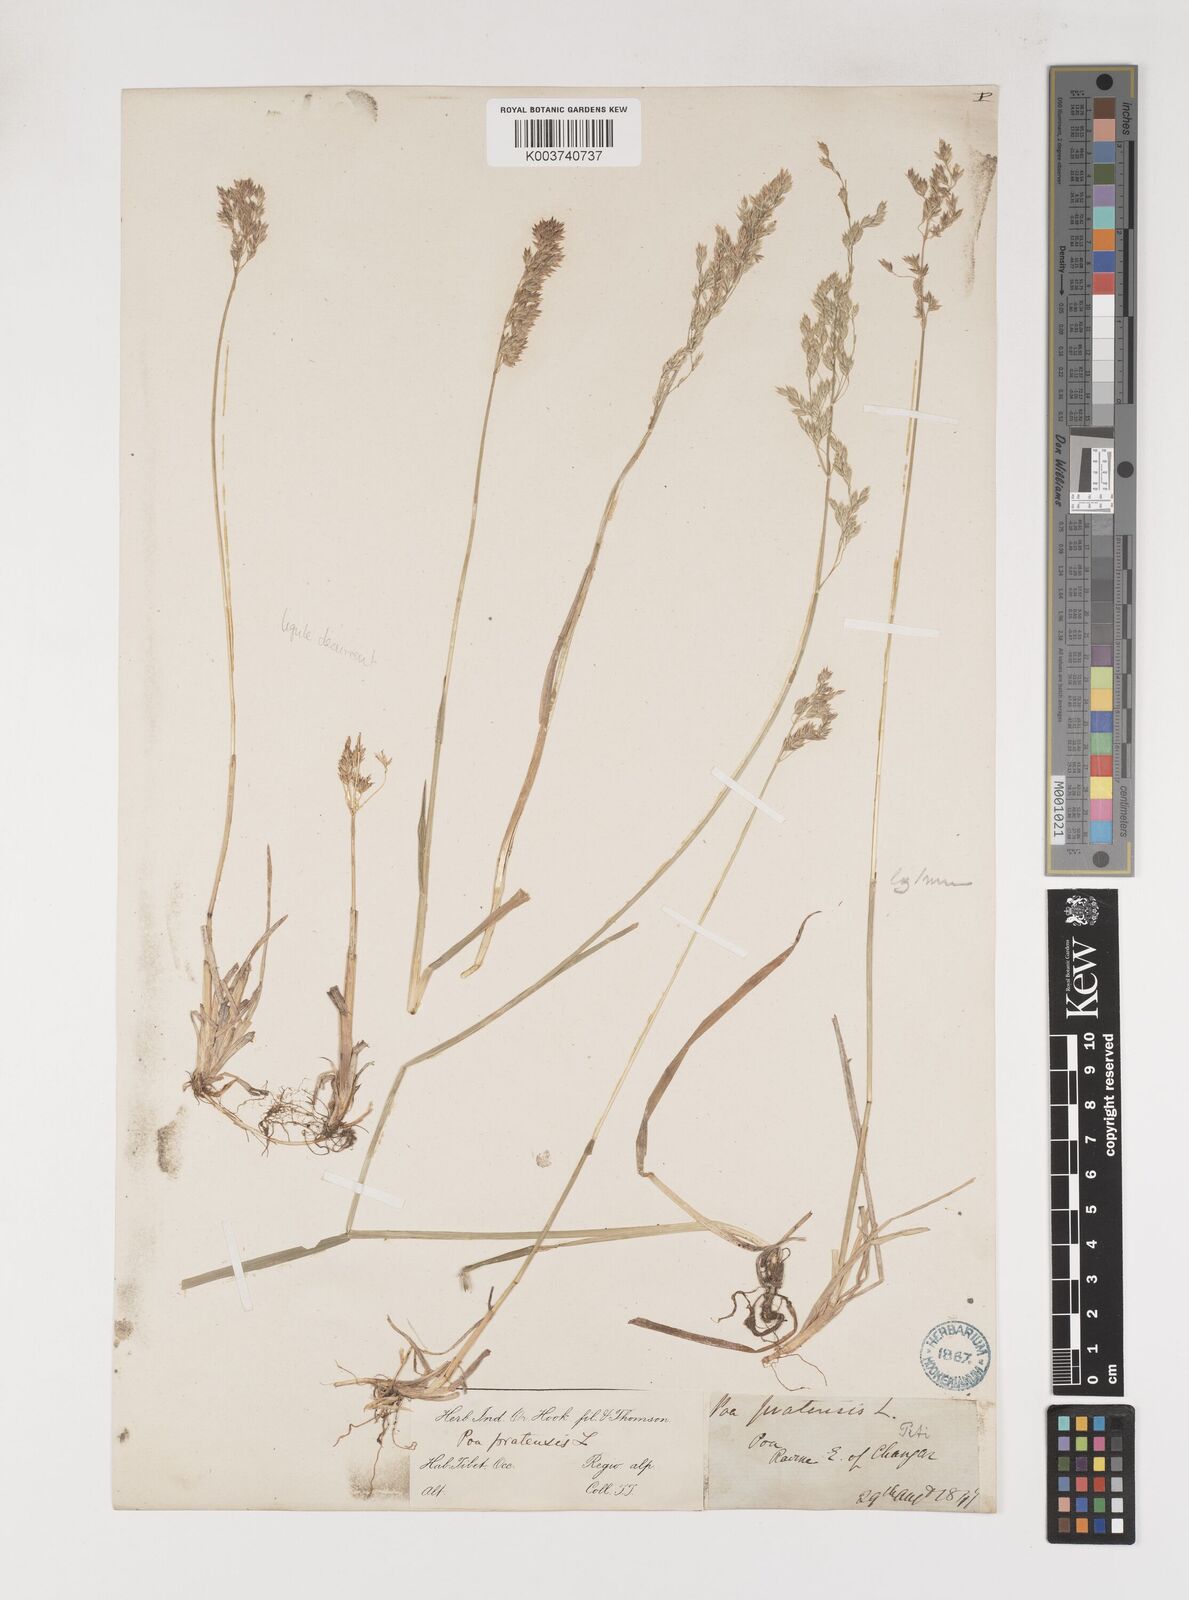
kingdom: Plantae
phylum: Tracheophyta
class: Liliopsida
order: Poales
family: Poaceae
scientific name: Poaceae
